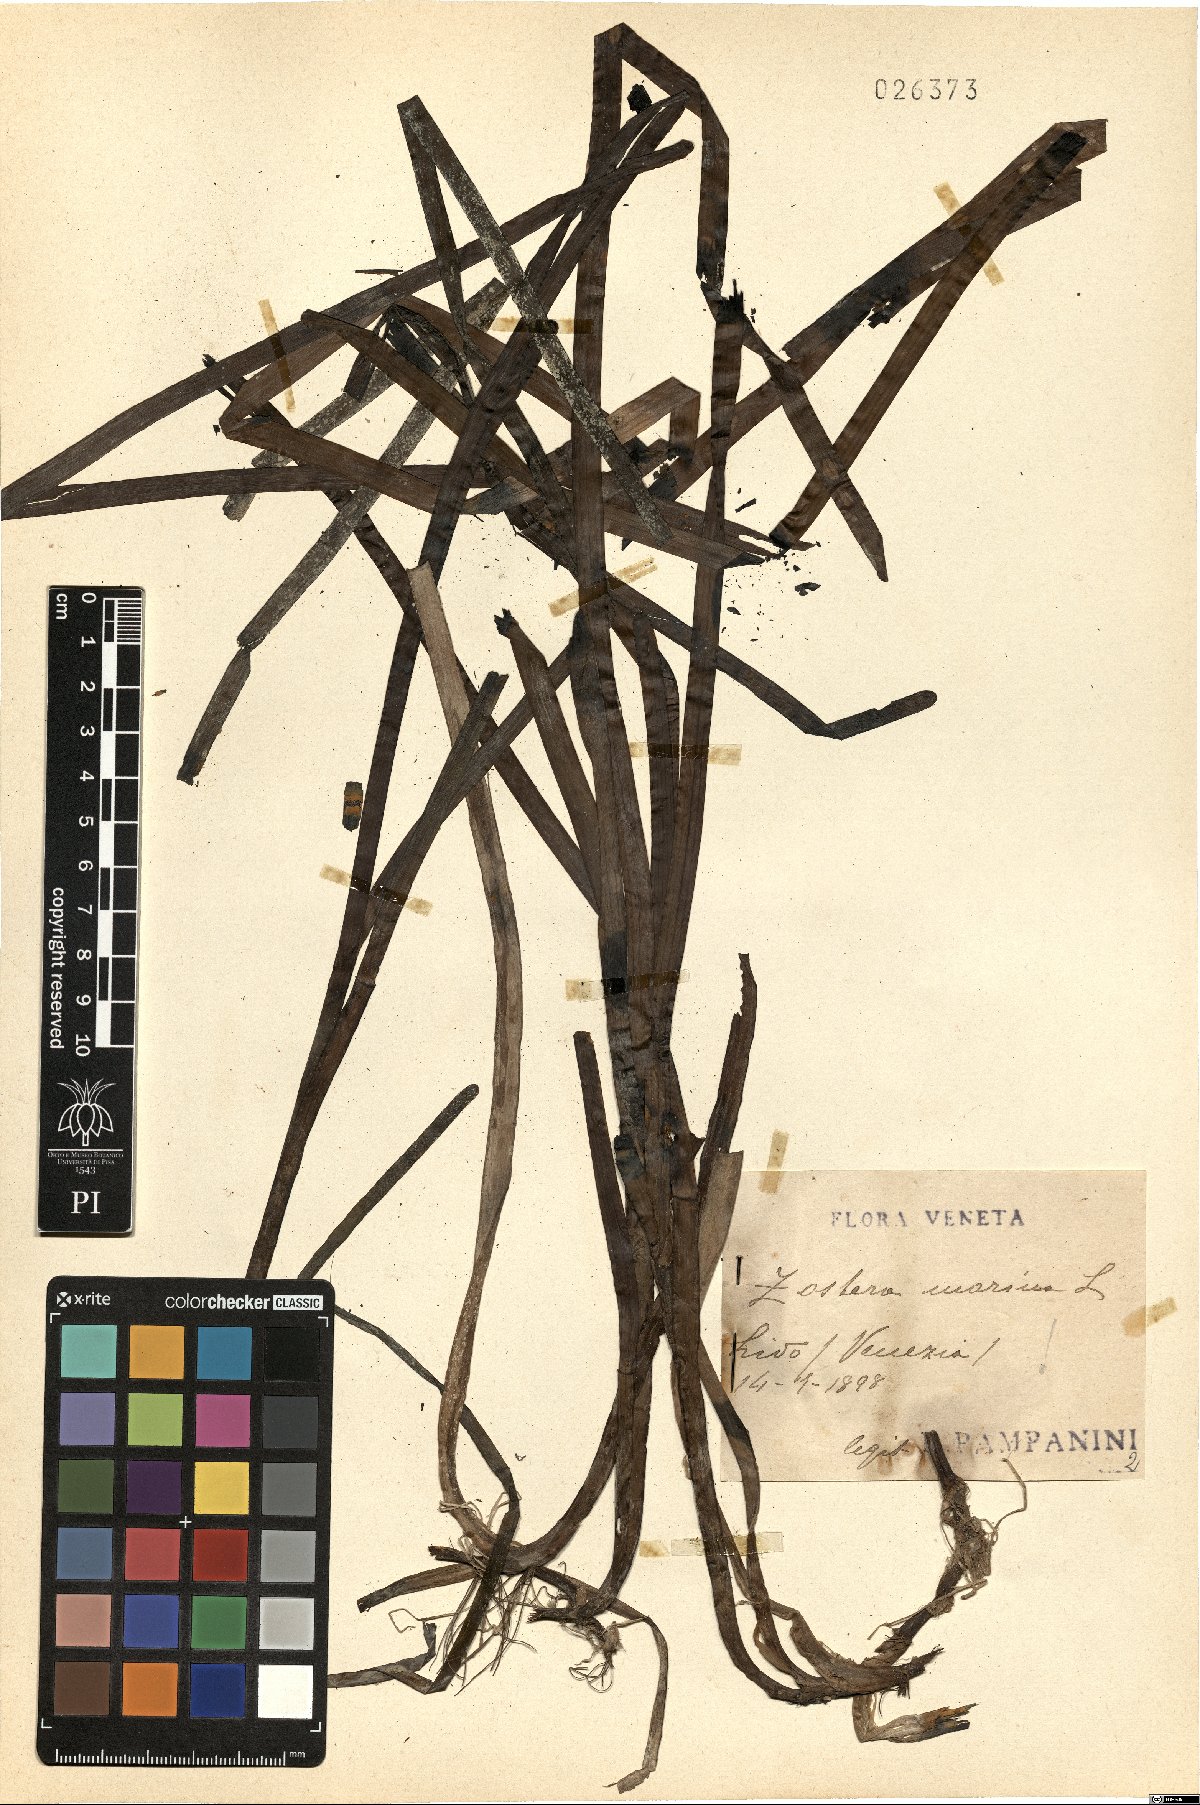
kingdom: Plantae
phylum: Tracheophyta
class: Liliopsida
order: Alismatales
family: Zosteraceae
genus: Zostera
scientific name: Zostera marina
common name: Eelgrass
